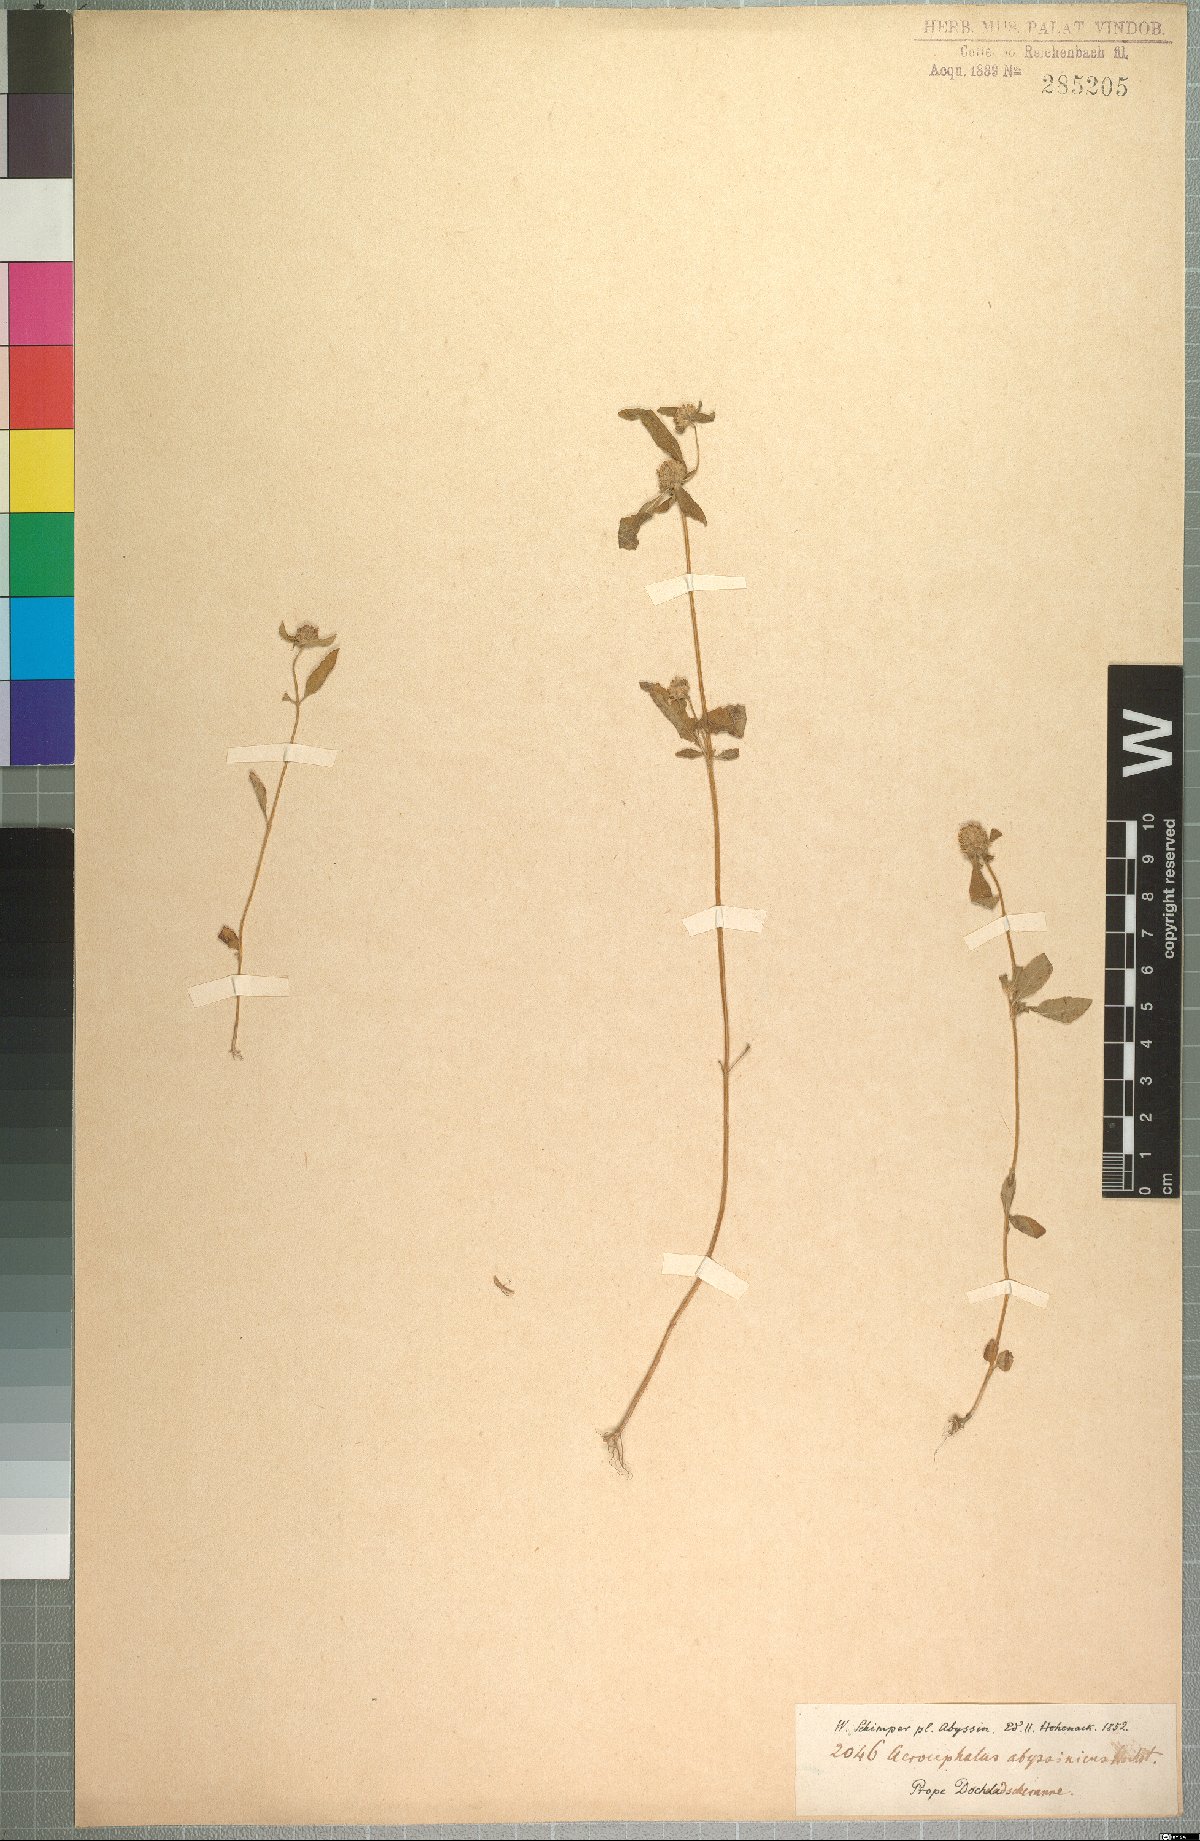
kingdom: Plantae
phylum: Tracheophyta
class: Magnoliopsida
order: Lamiales
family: Lamiaceae
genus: Haumaniastrum
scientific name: Haumaniastrum villosum
